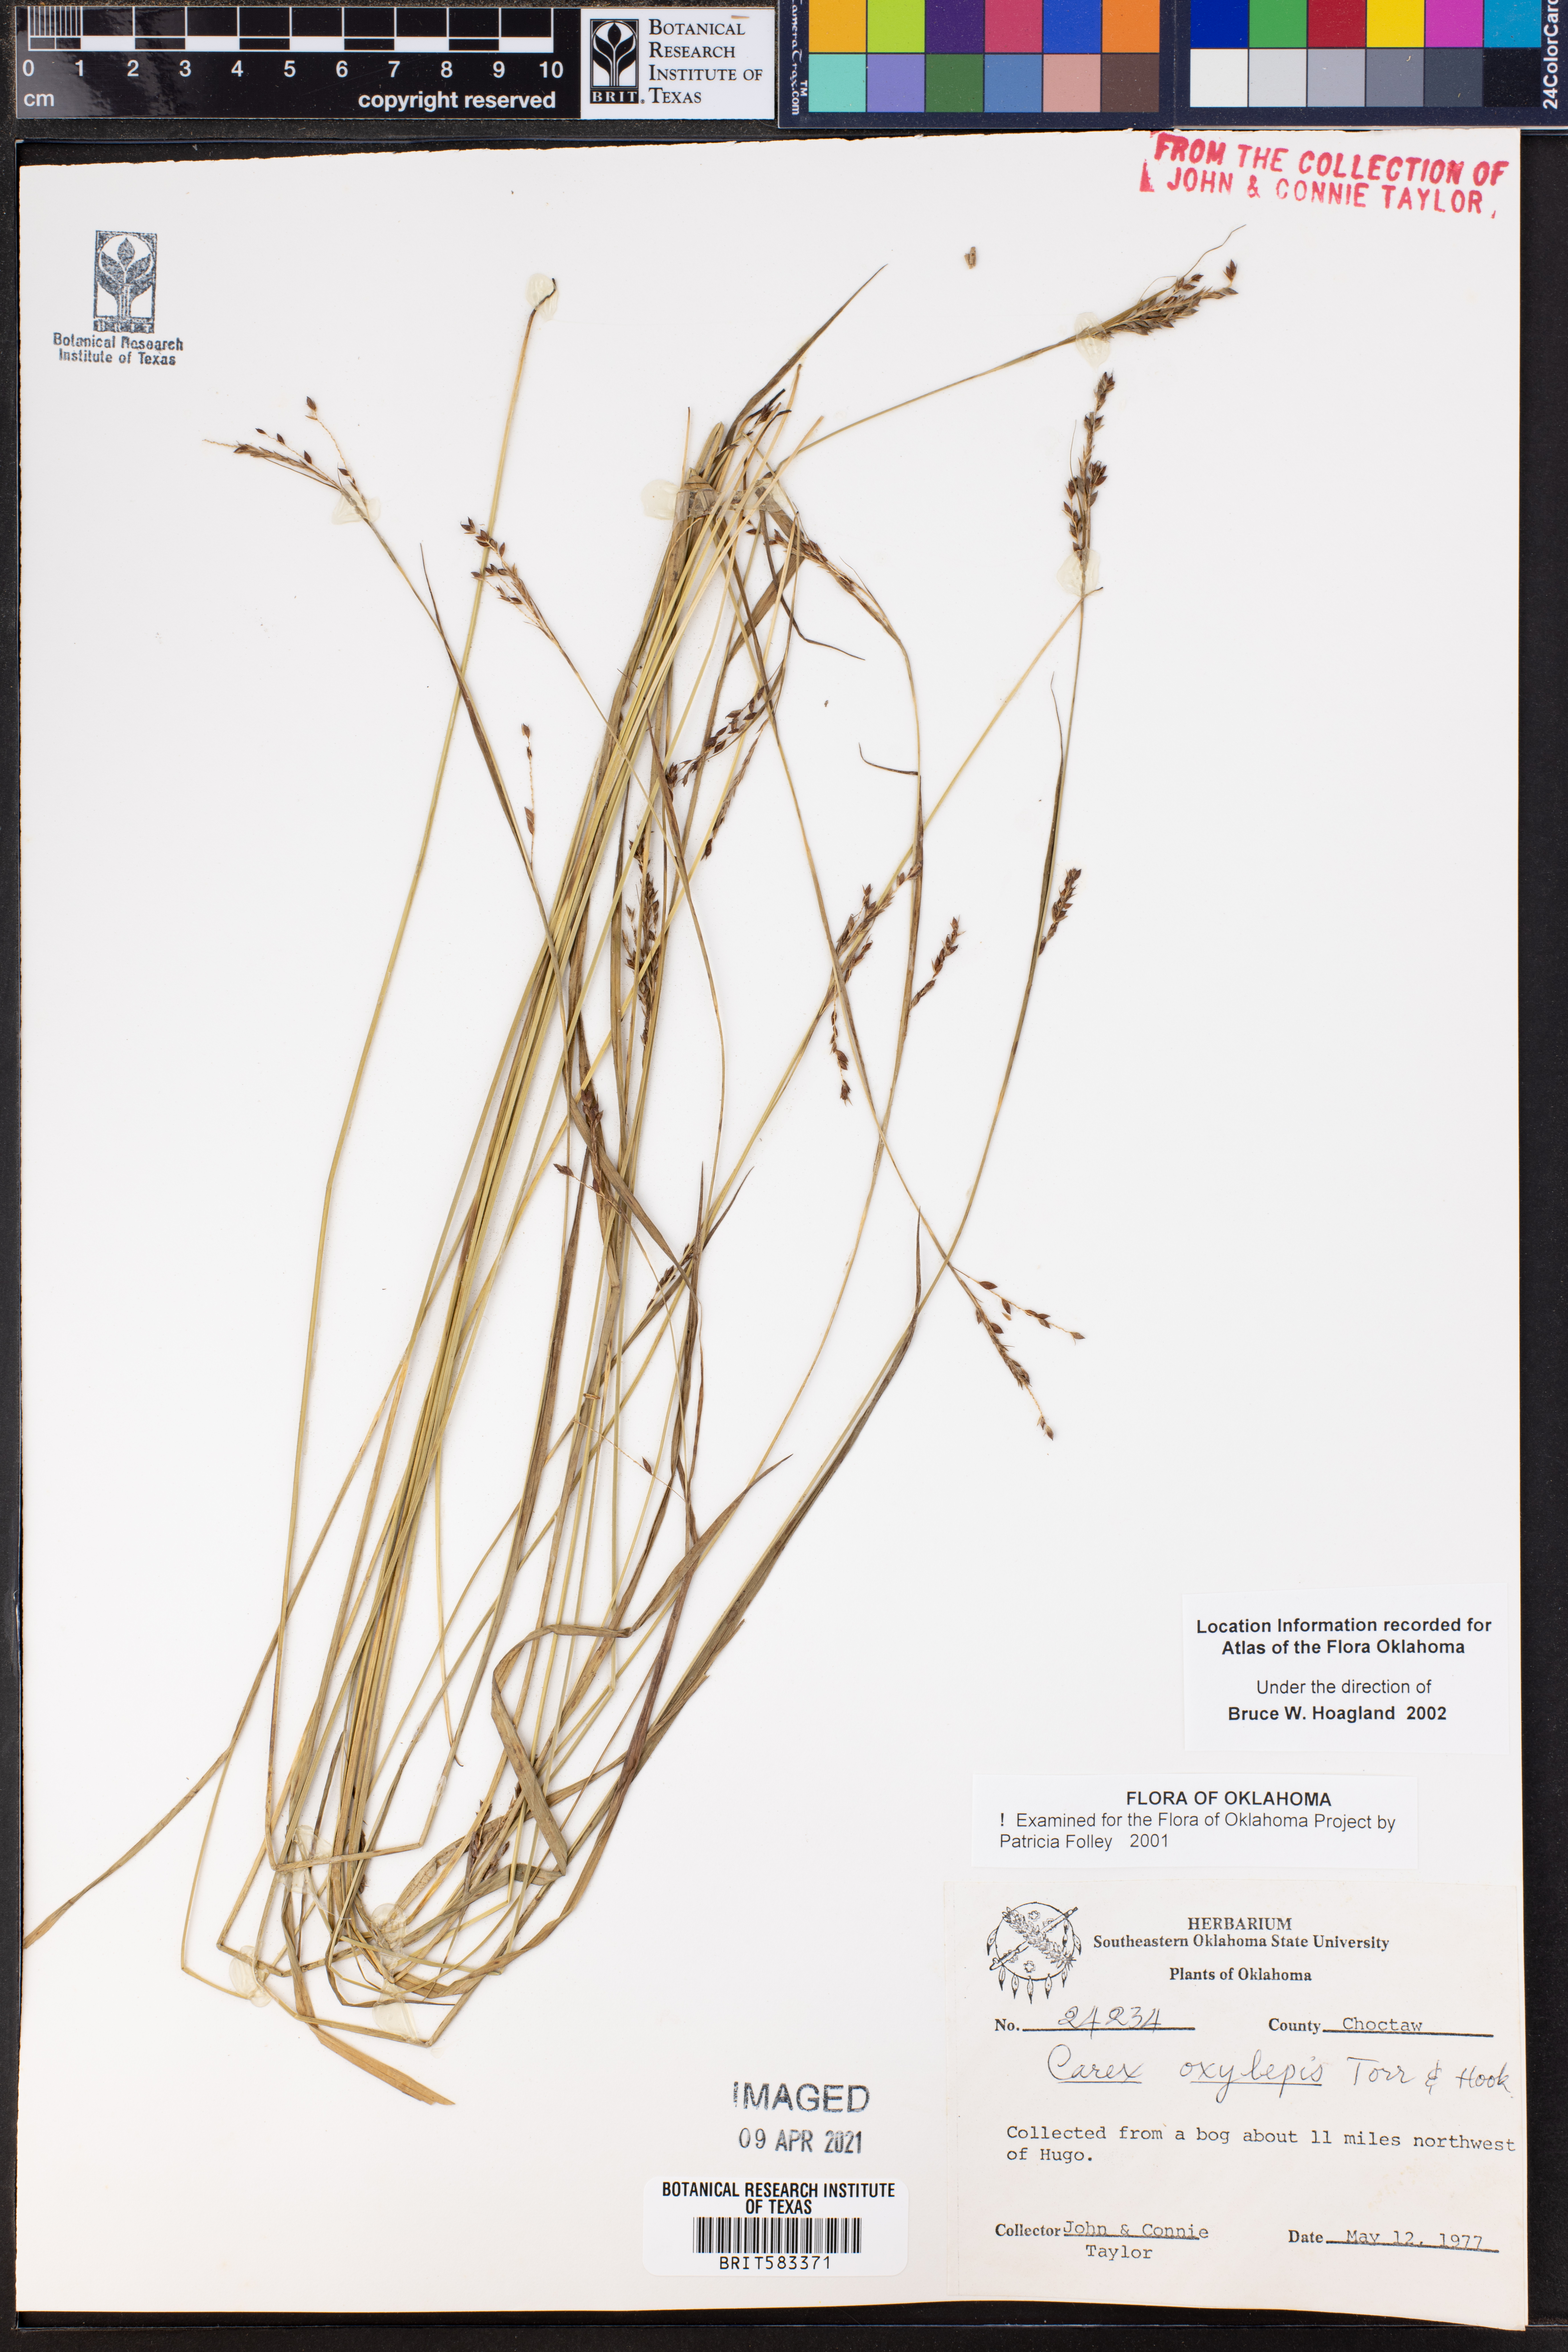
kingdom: Plantae
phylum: Tracheophyta
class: Liliopsida
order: Poales
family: Cyperaceae
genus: Carex
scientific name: Carex oxylepis
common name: Sharpscale sedge
